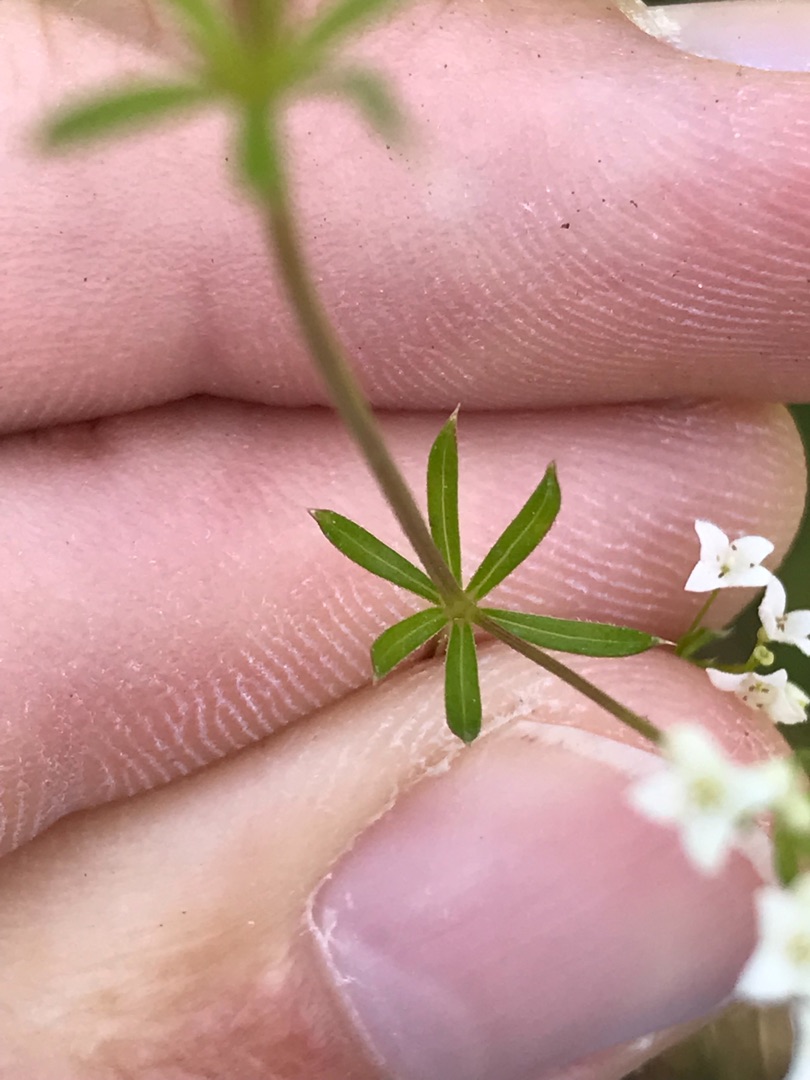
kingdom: Plantae
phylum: Tracheophyta
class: Magnoliopsida
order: Gentianales
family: Rubiaceae
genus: Galium
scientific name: Galium uliginosum
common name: Sump-snerre
